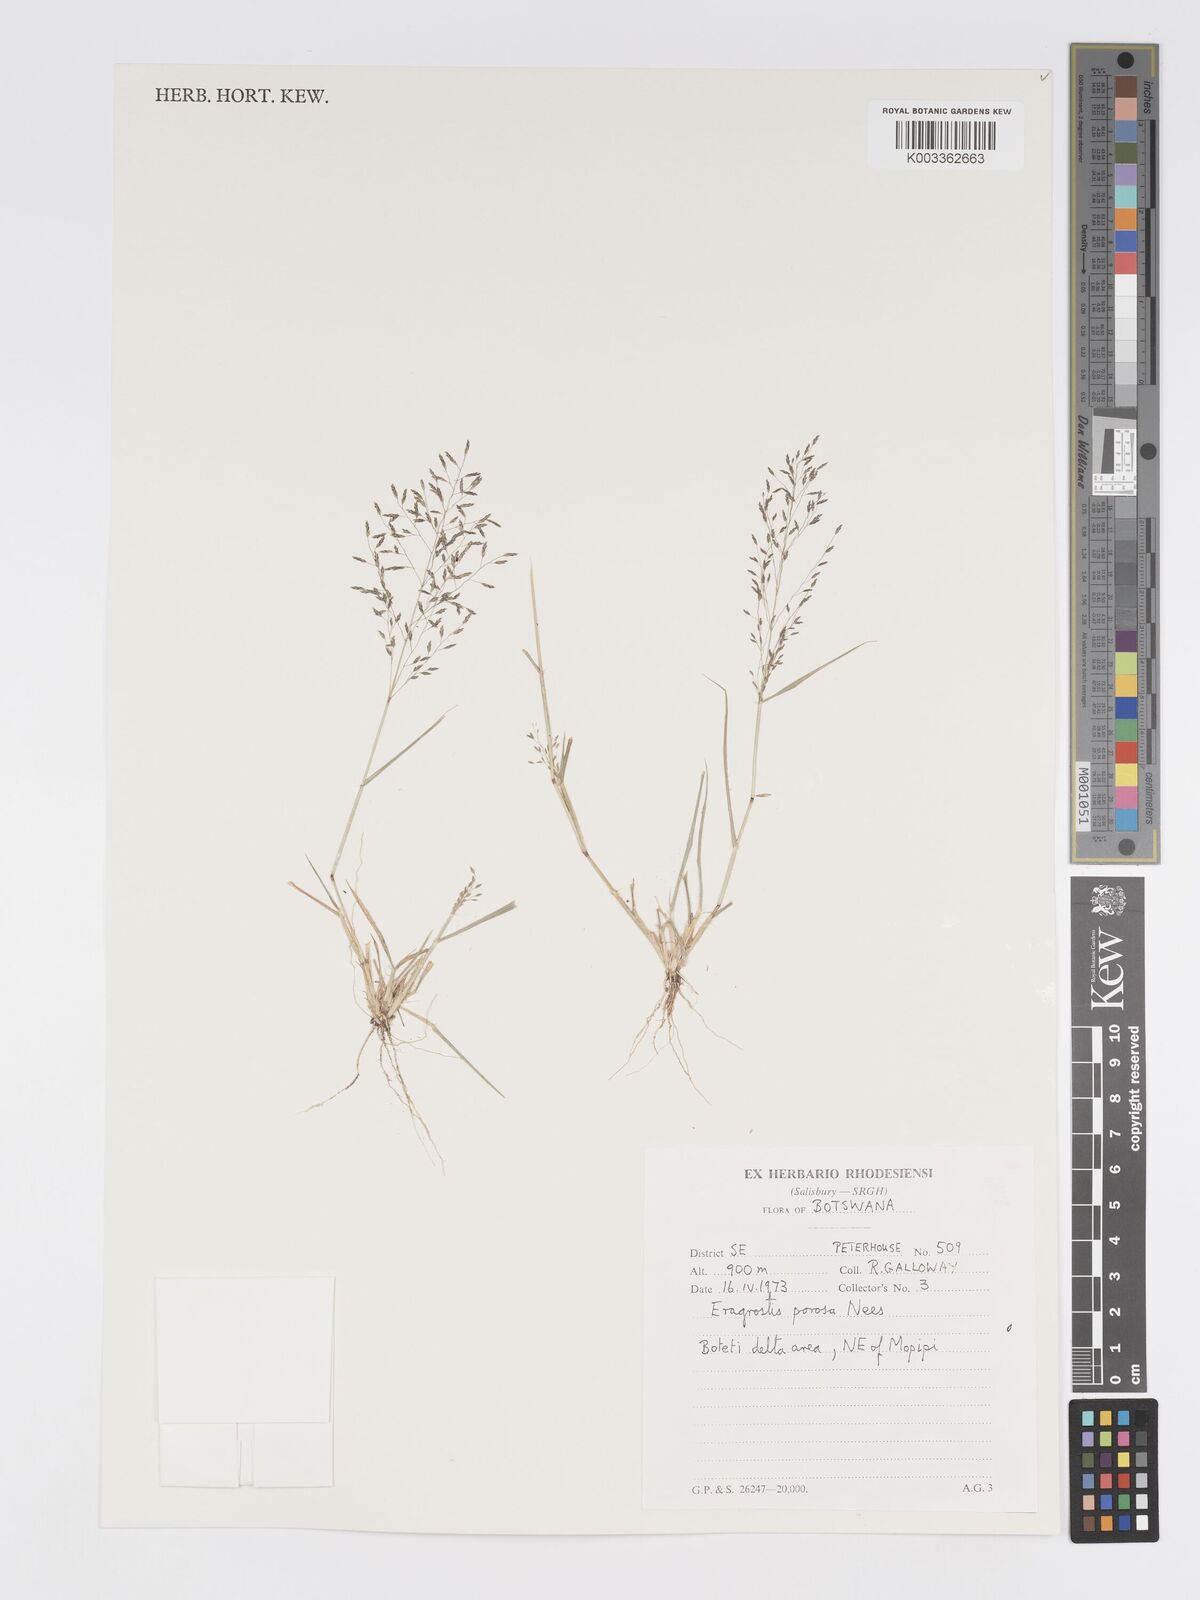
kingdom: Plantae
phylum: Tracheophyta
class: Liliopsida
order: Poales
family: Poaceae
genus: Eragrostis
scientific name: Eragrostis porosa
